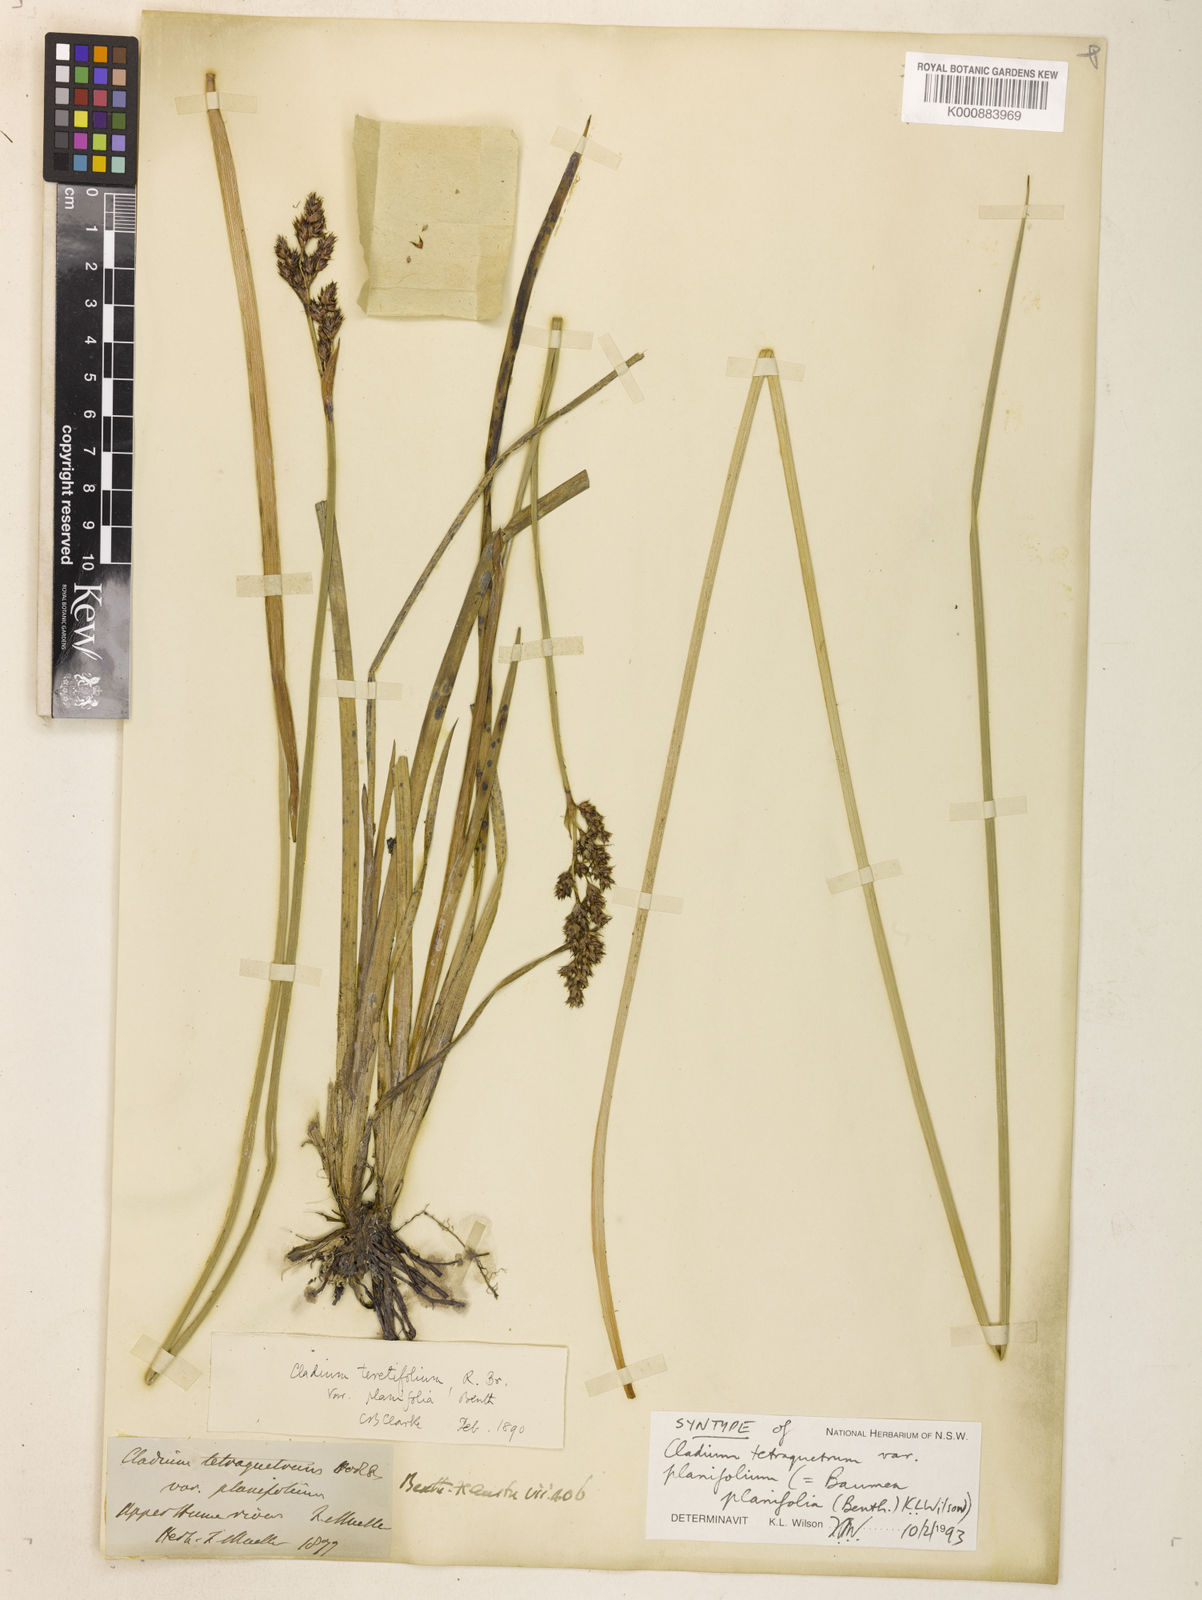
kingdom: Plantae
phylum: Tracheophyta
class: Liliopsida
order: Poales
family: Cyperaceae
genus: Machaerina
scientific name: Machaerina teretifolia
